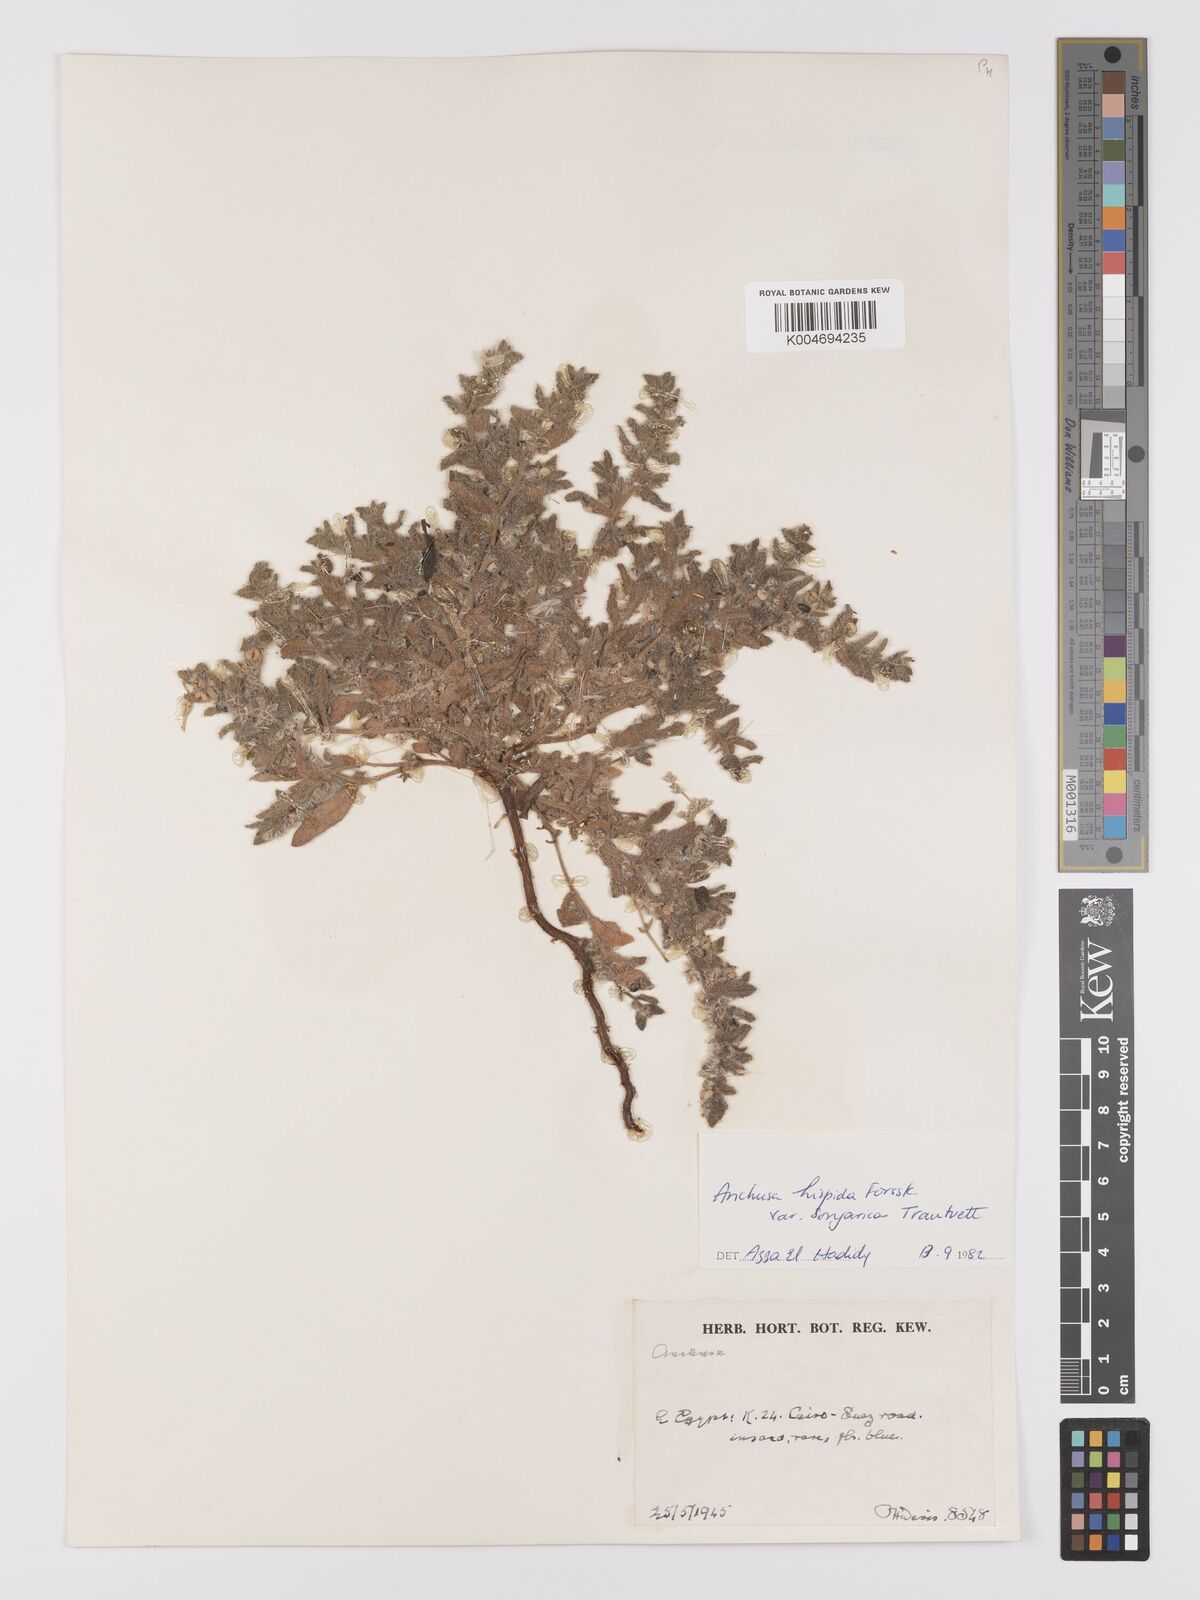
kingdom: Plantae
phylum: Tracheophyta
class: Magnoliopsida
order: Boraginales
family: Boraginaceae
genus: Gastrocotyle
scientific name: Gastrocotyle hispida
